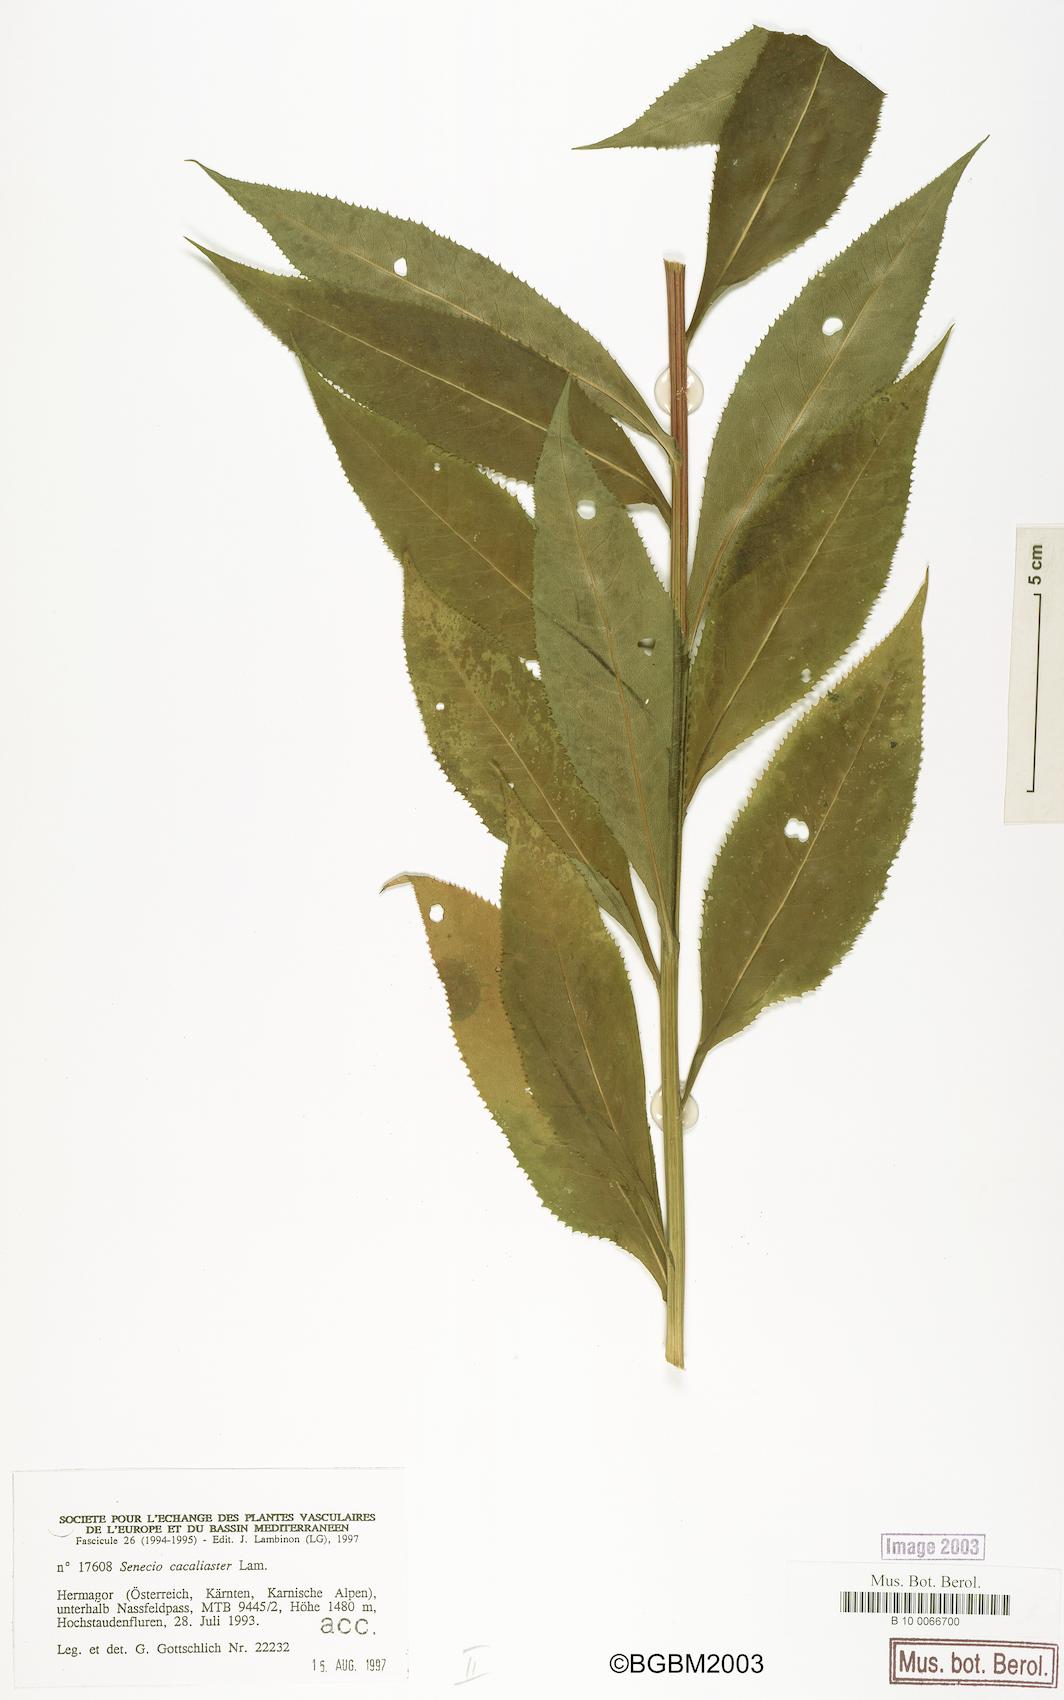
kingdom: Plantae
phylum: Tracheophyta
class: Magnoliopsida
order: Asterales
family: Asteraceae
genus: Senecio
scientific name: Senecio cacaliaster
